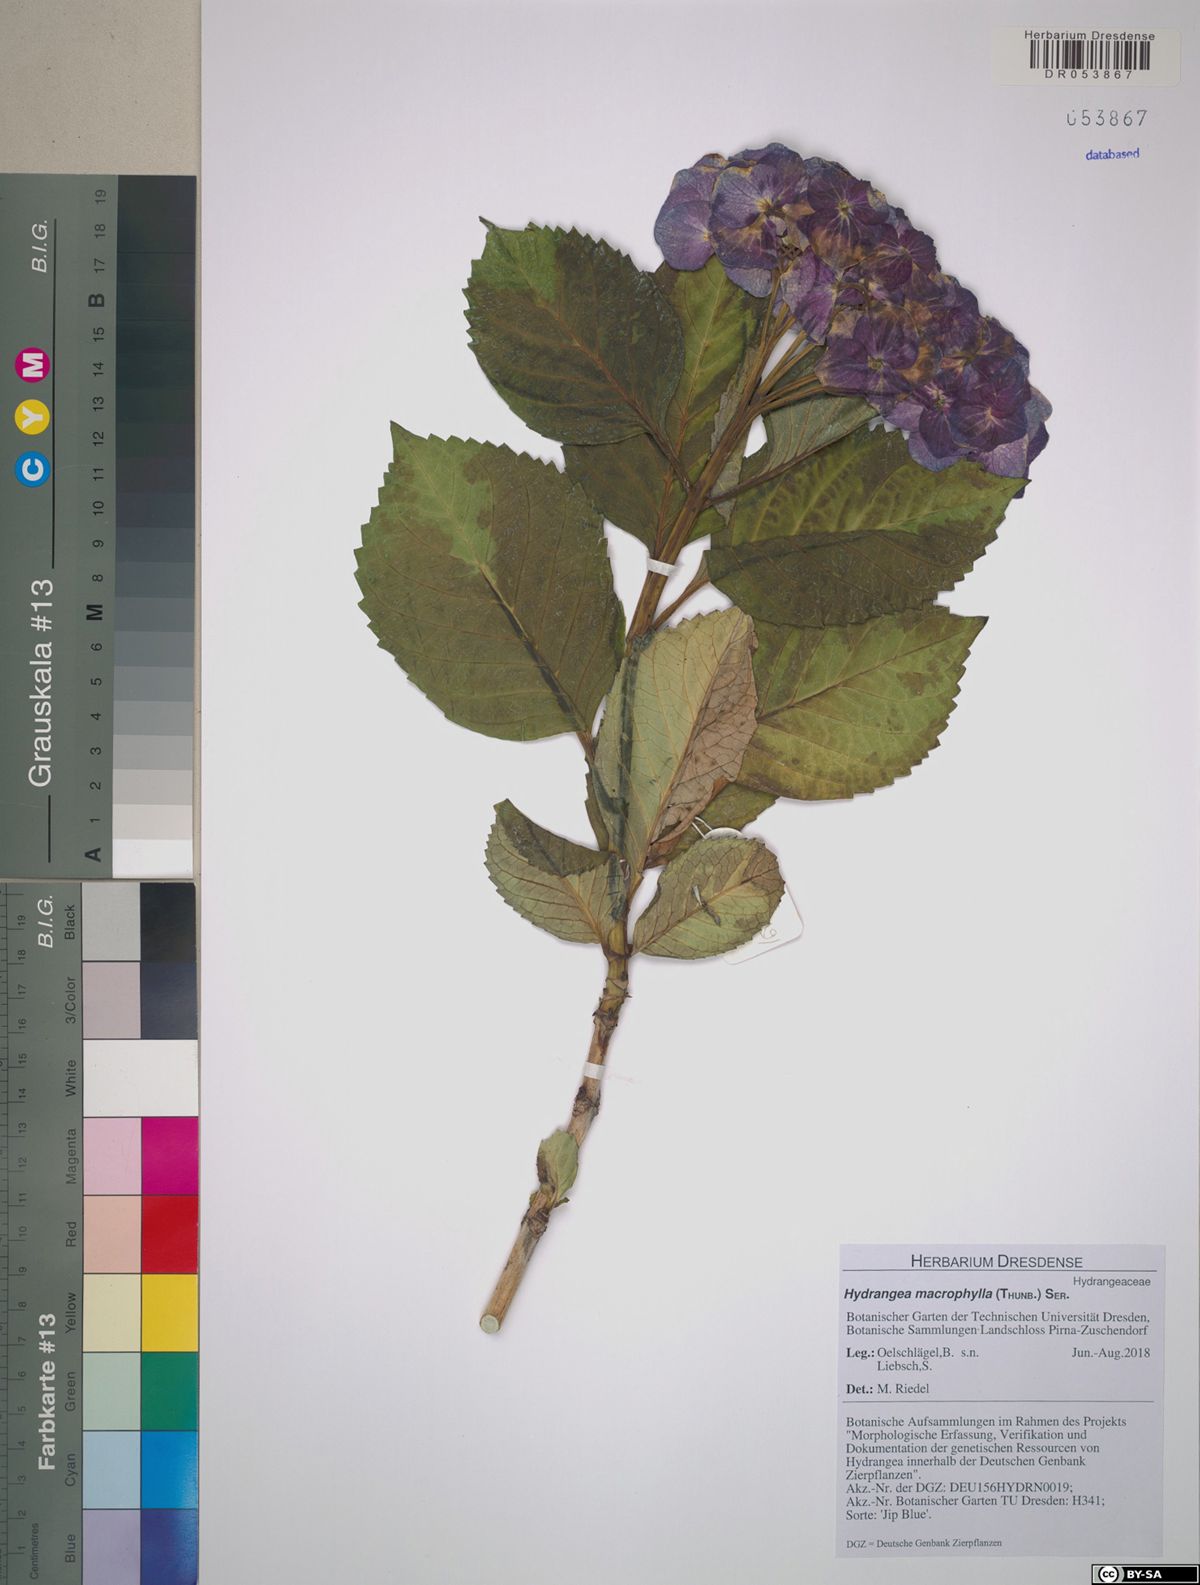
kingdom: Plantae
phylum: Tracheophyta
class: Magnoliopsida
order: Cornales
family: Hydrangeaceae
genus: Hydrangea
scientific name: Hydrangea macrophylla
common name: Hydrangea
